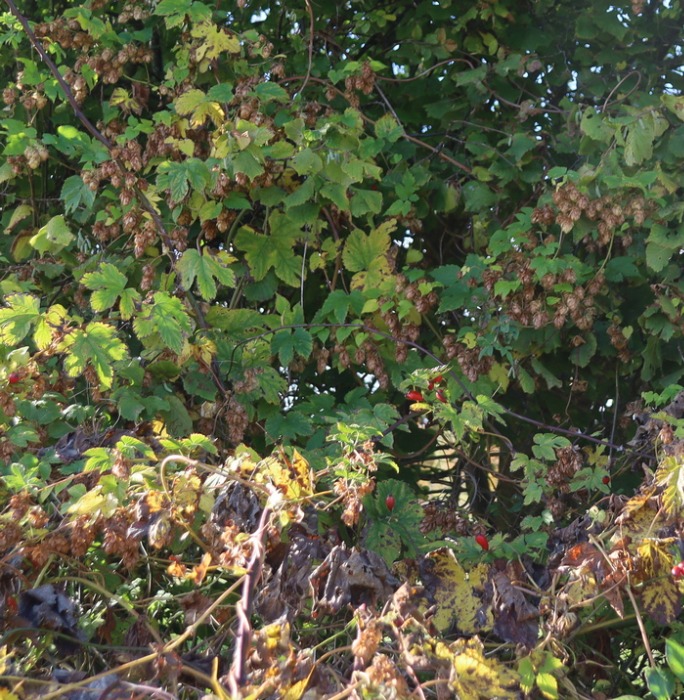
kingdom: Plantae
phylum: Tracheophyta
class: Magnoliopsida
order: Rosales
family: Cannabaceae
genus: Humulus
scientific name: Humulus lupulus
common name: Humle
